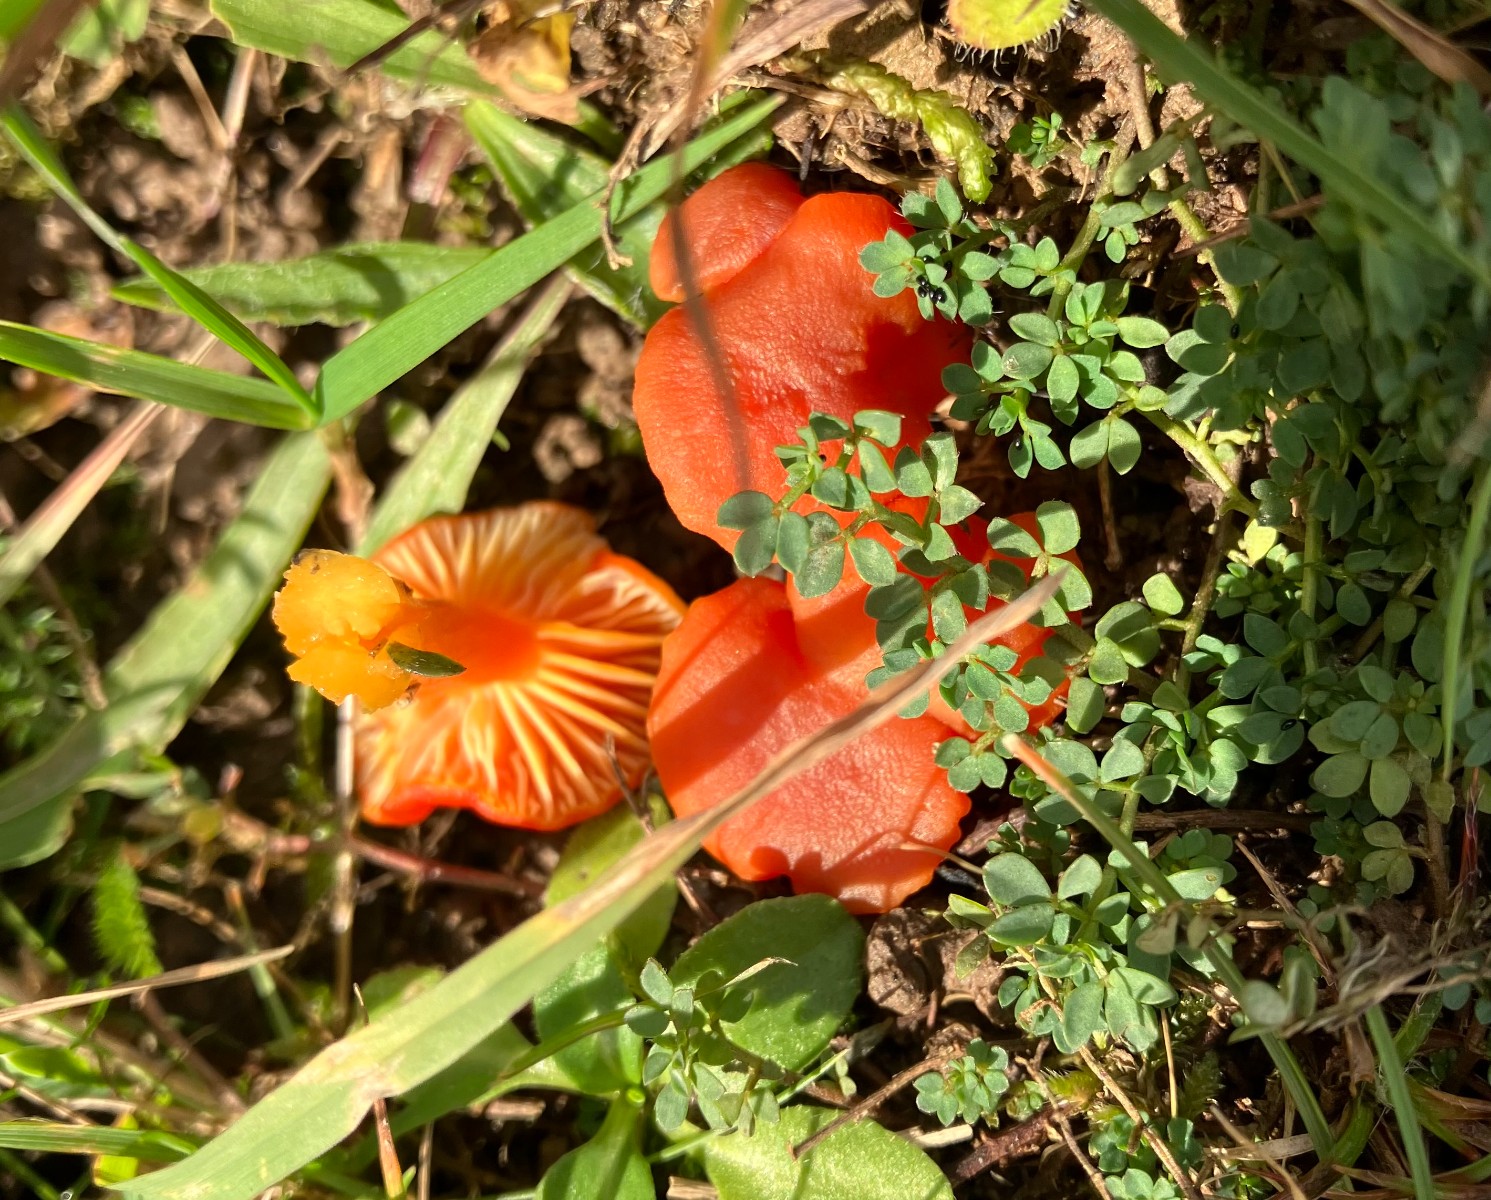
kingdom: Fungi
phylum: Basidiomycota
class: Agaricomycetes
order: Agaricales
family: Hygrophoraceae
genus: Hygrocybe
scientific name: Hygrocybe miniata
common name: mønje-vokshat
